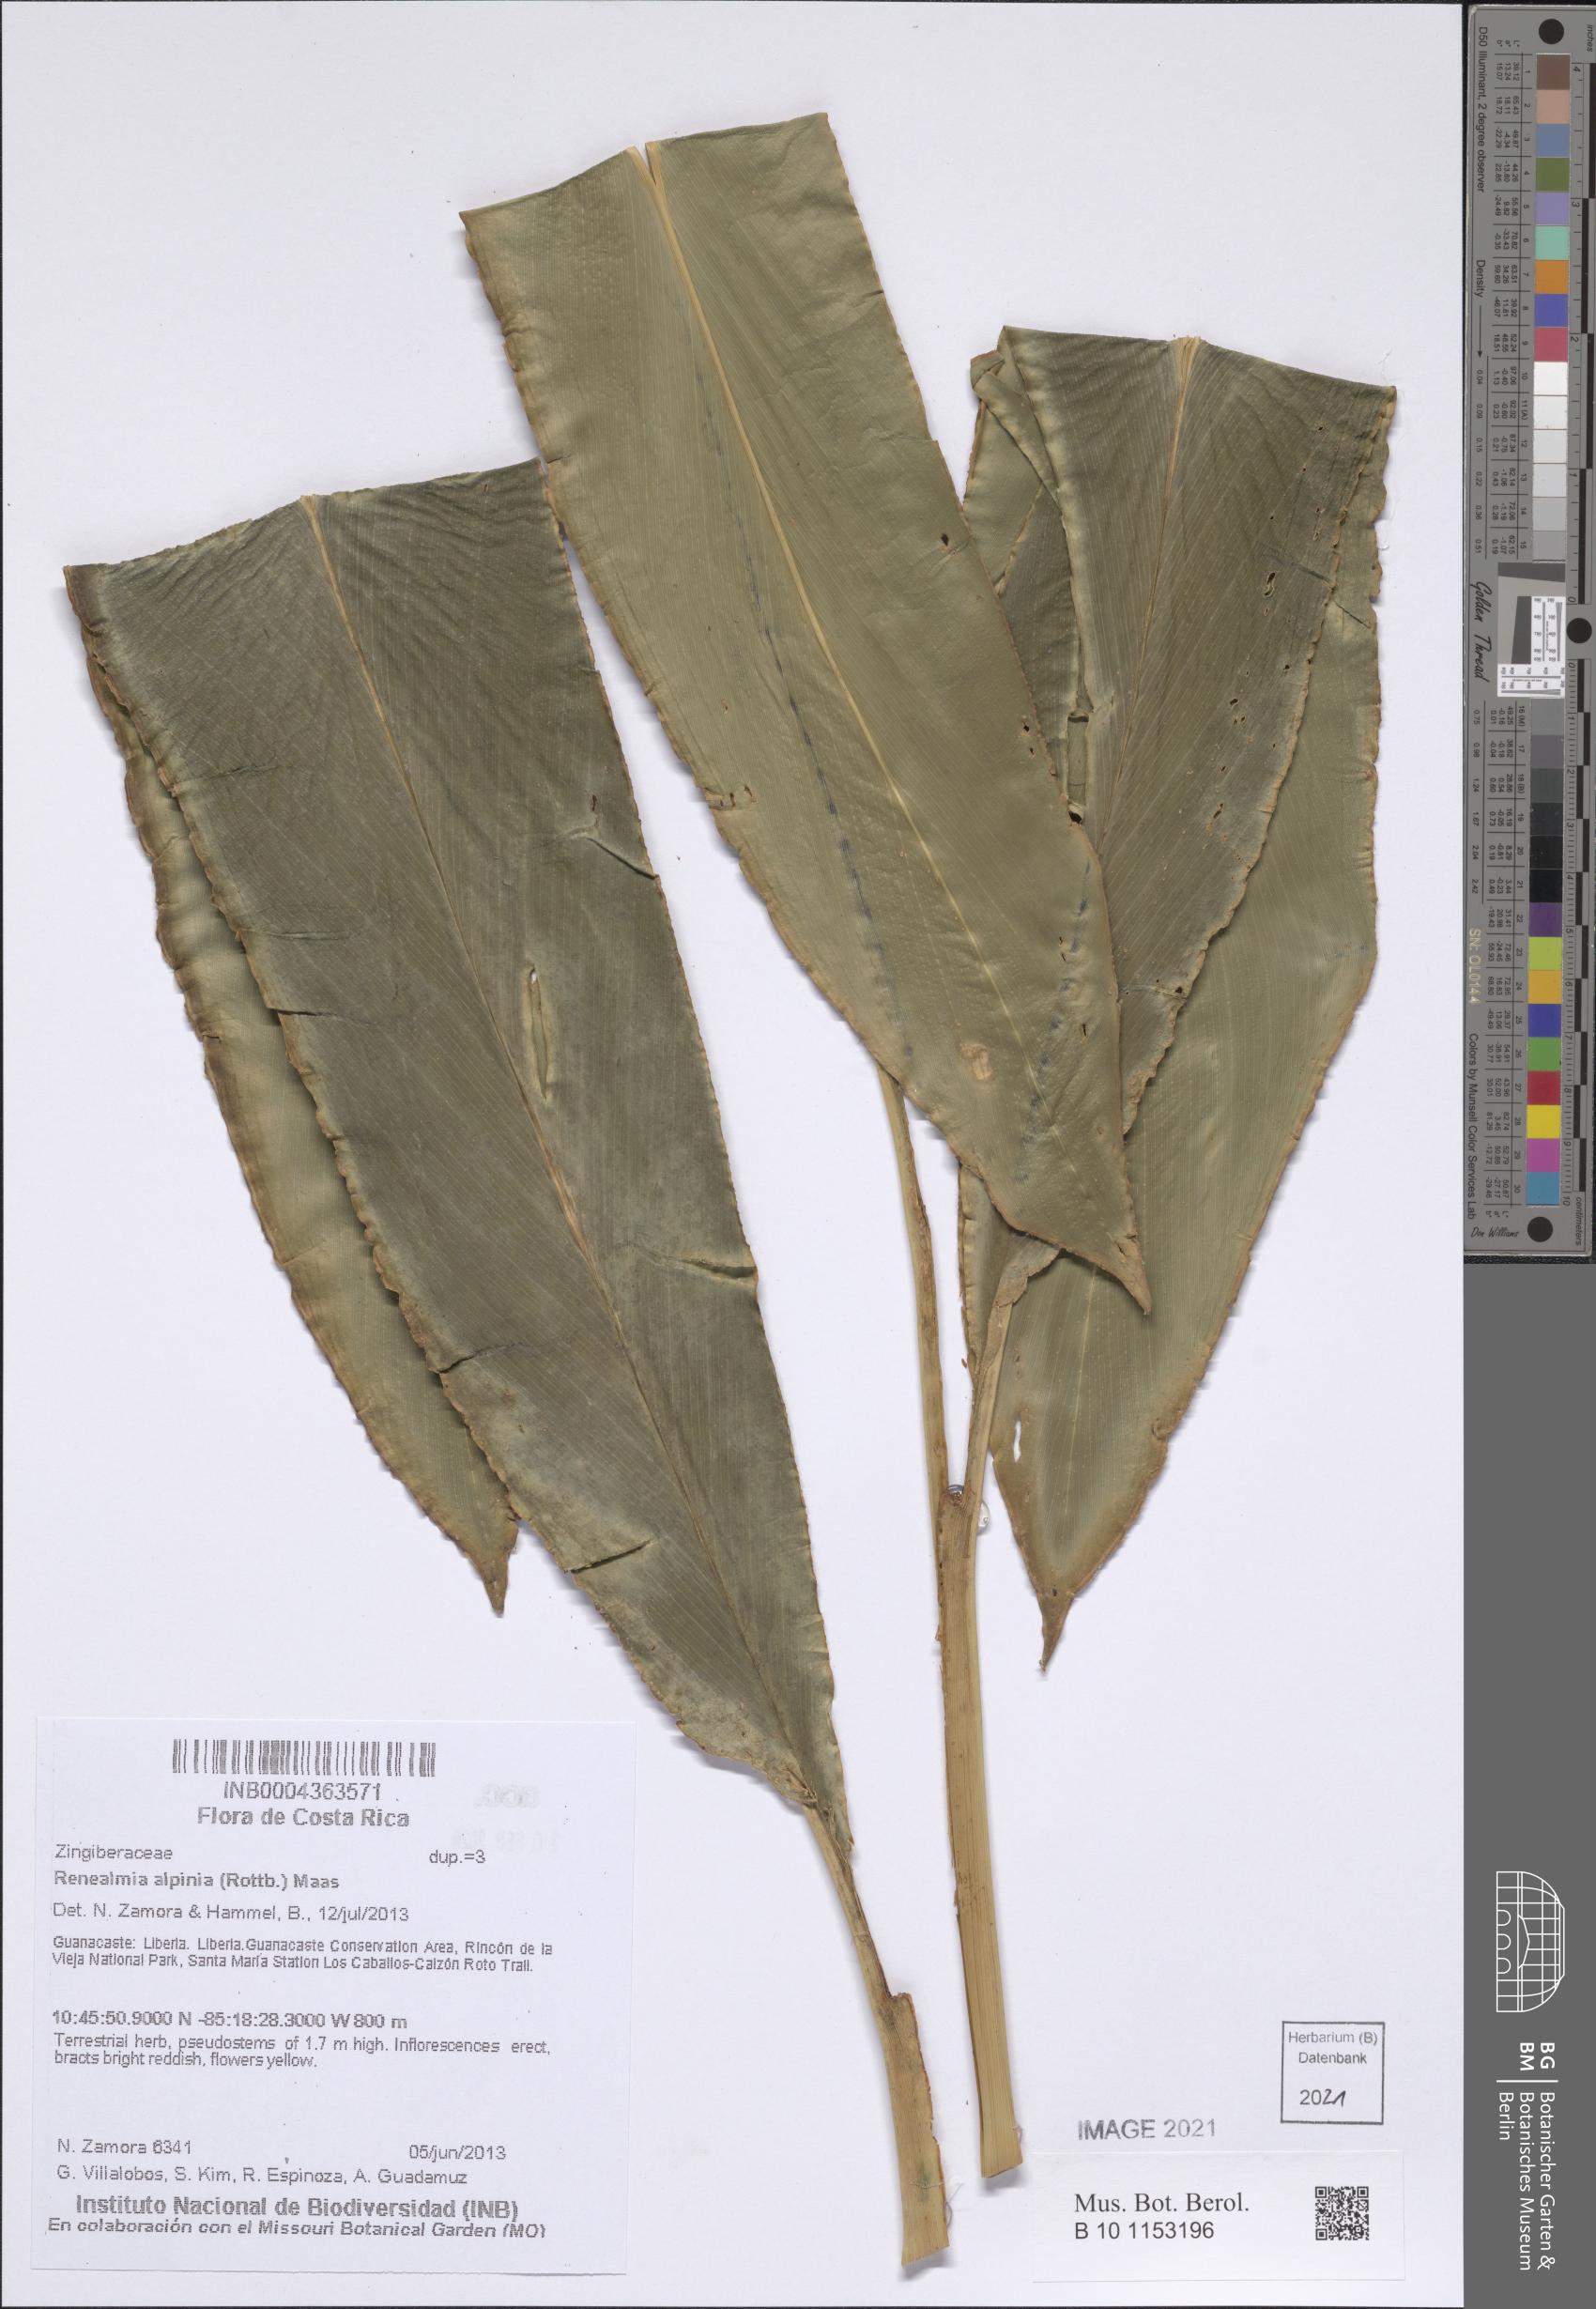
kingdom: Plantae
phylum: Tracheophyta
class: Liliopsida
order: Zingiberales
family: Zingiberaceae
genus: Renealmia
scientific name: Renealmia alpinia
